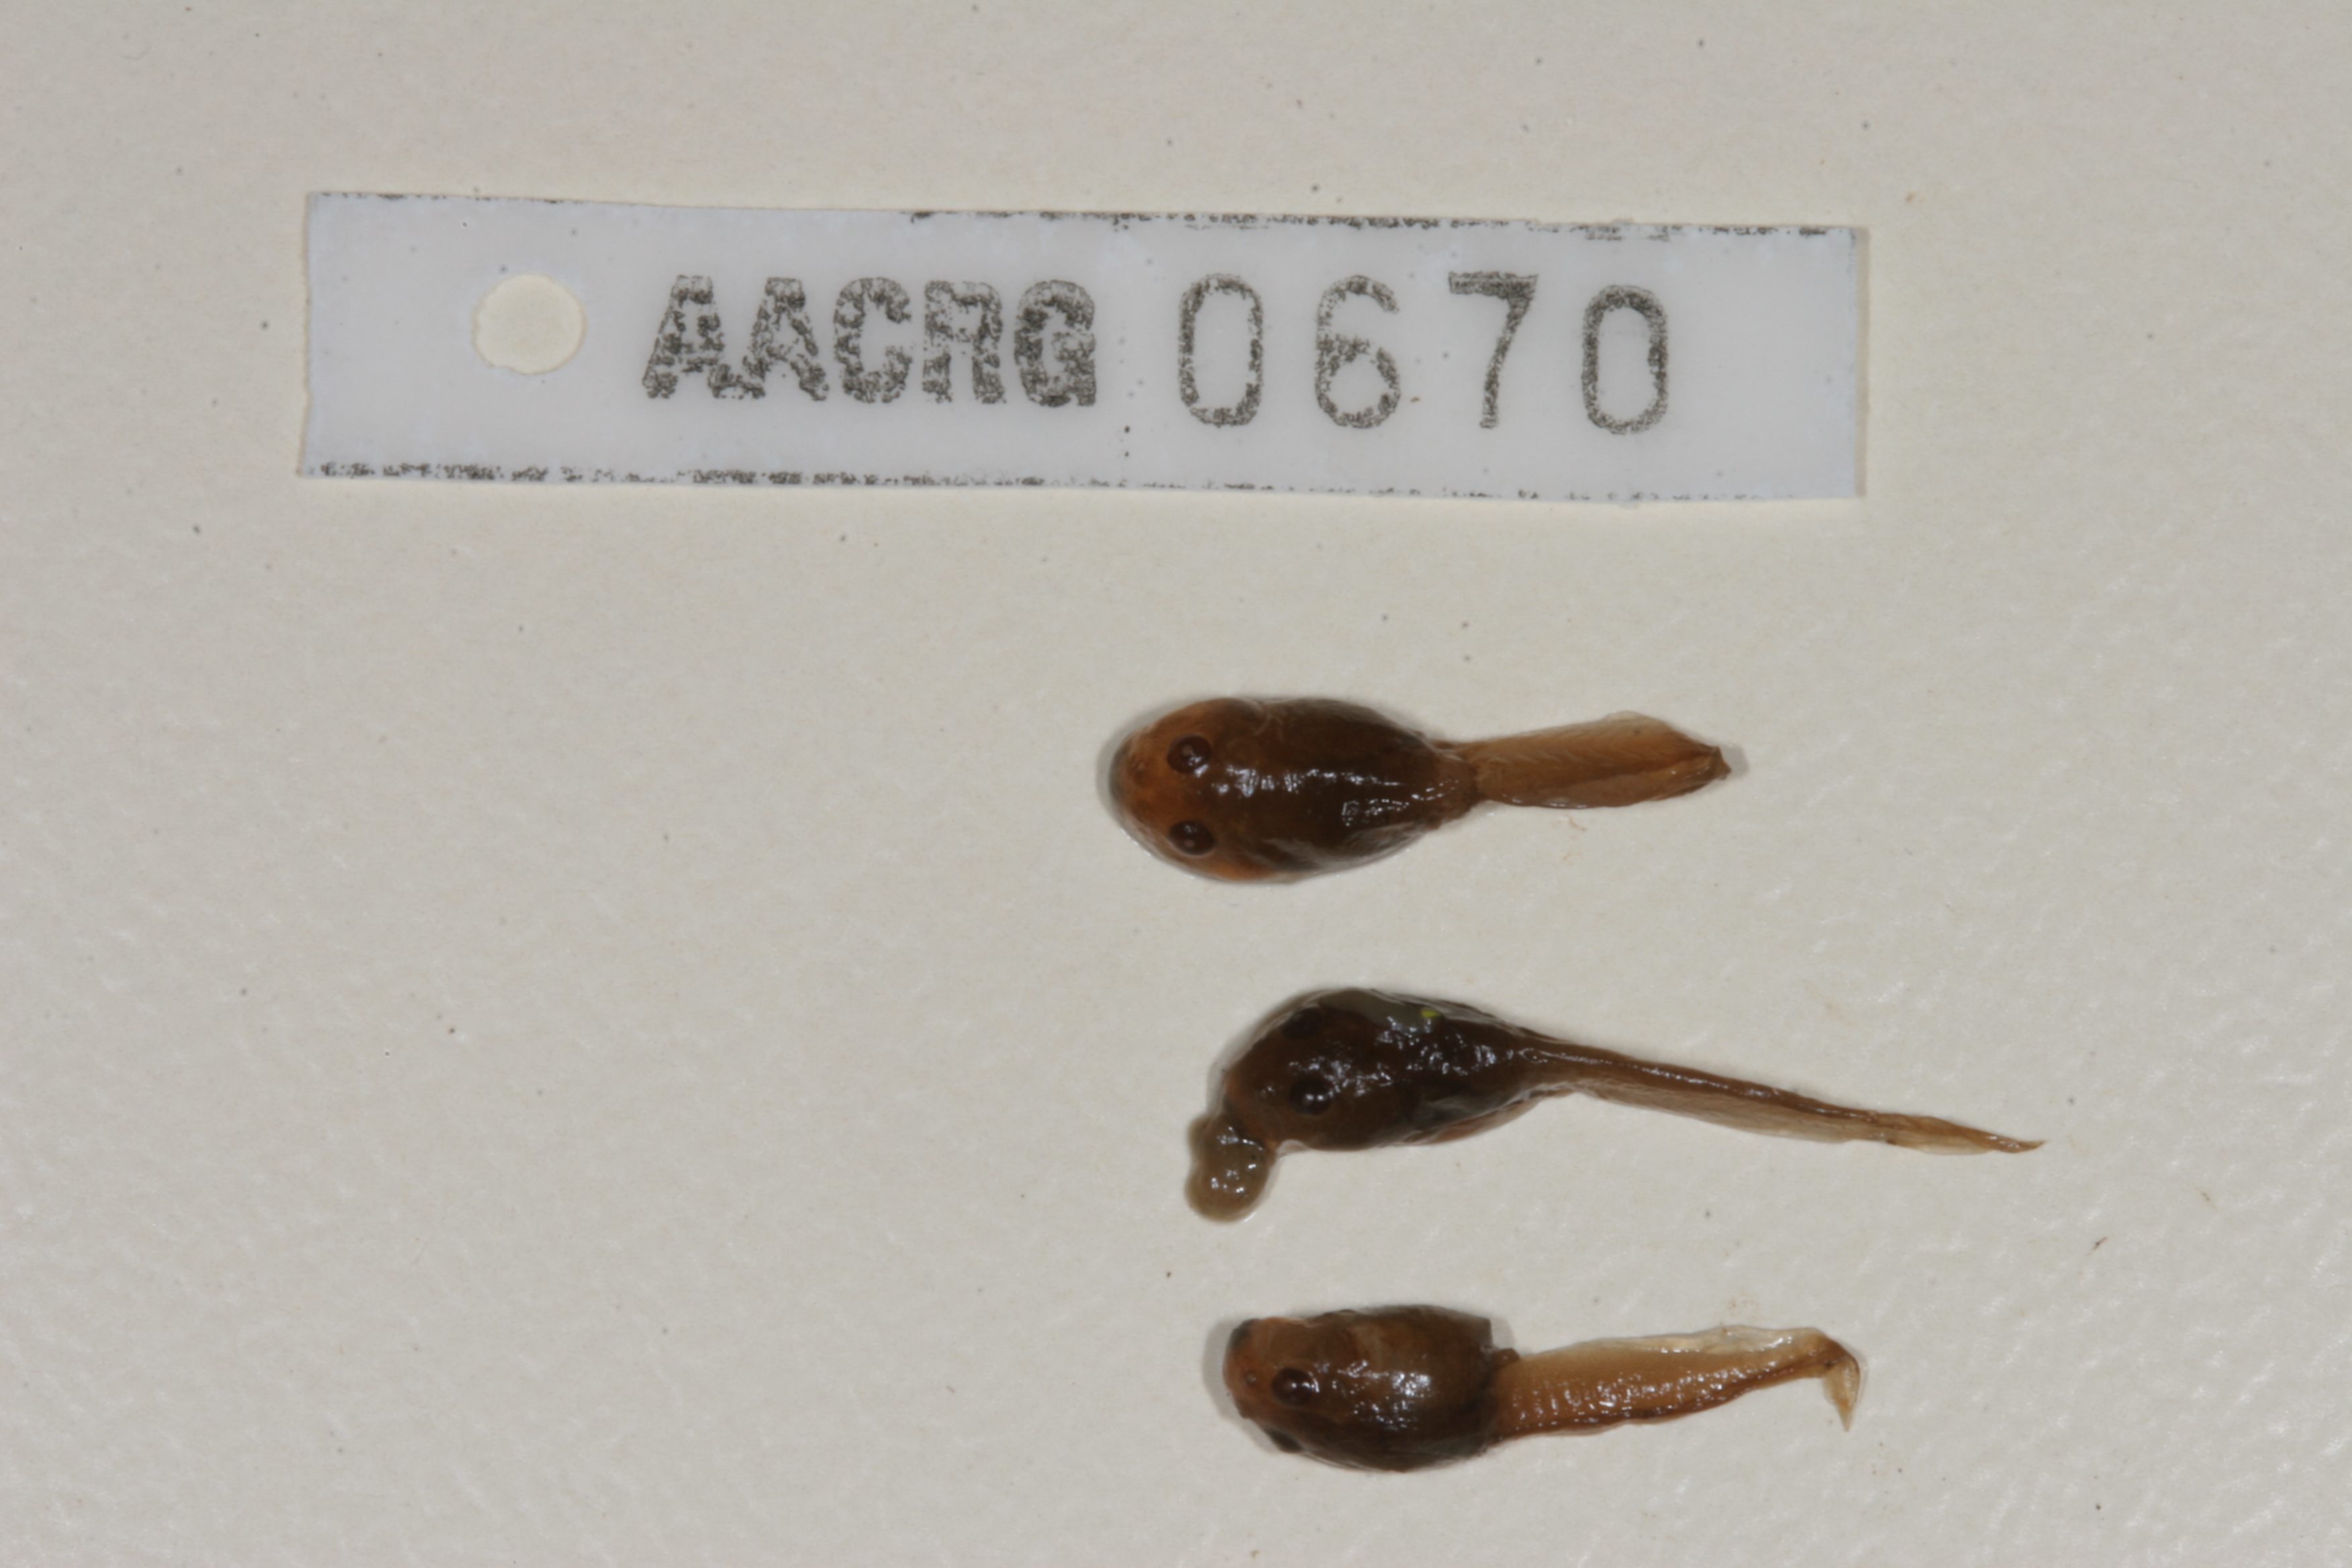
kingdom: Animalia
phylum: Chordata
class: Amphibia
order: Anura
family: Bufonidae
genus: Vandijkophrynus
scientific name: Vandijkophrynus angusticeps
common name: Sand toad
